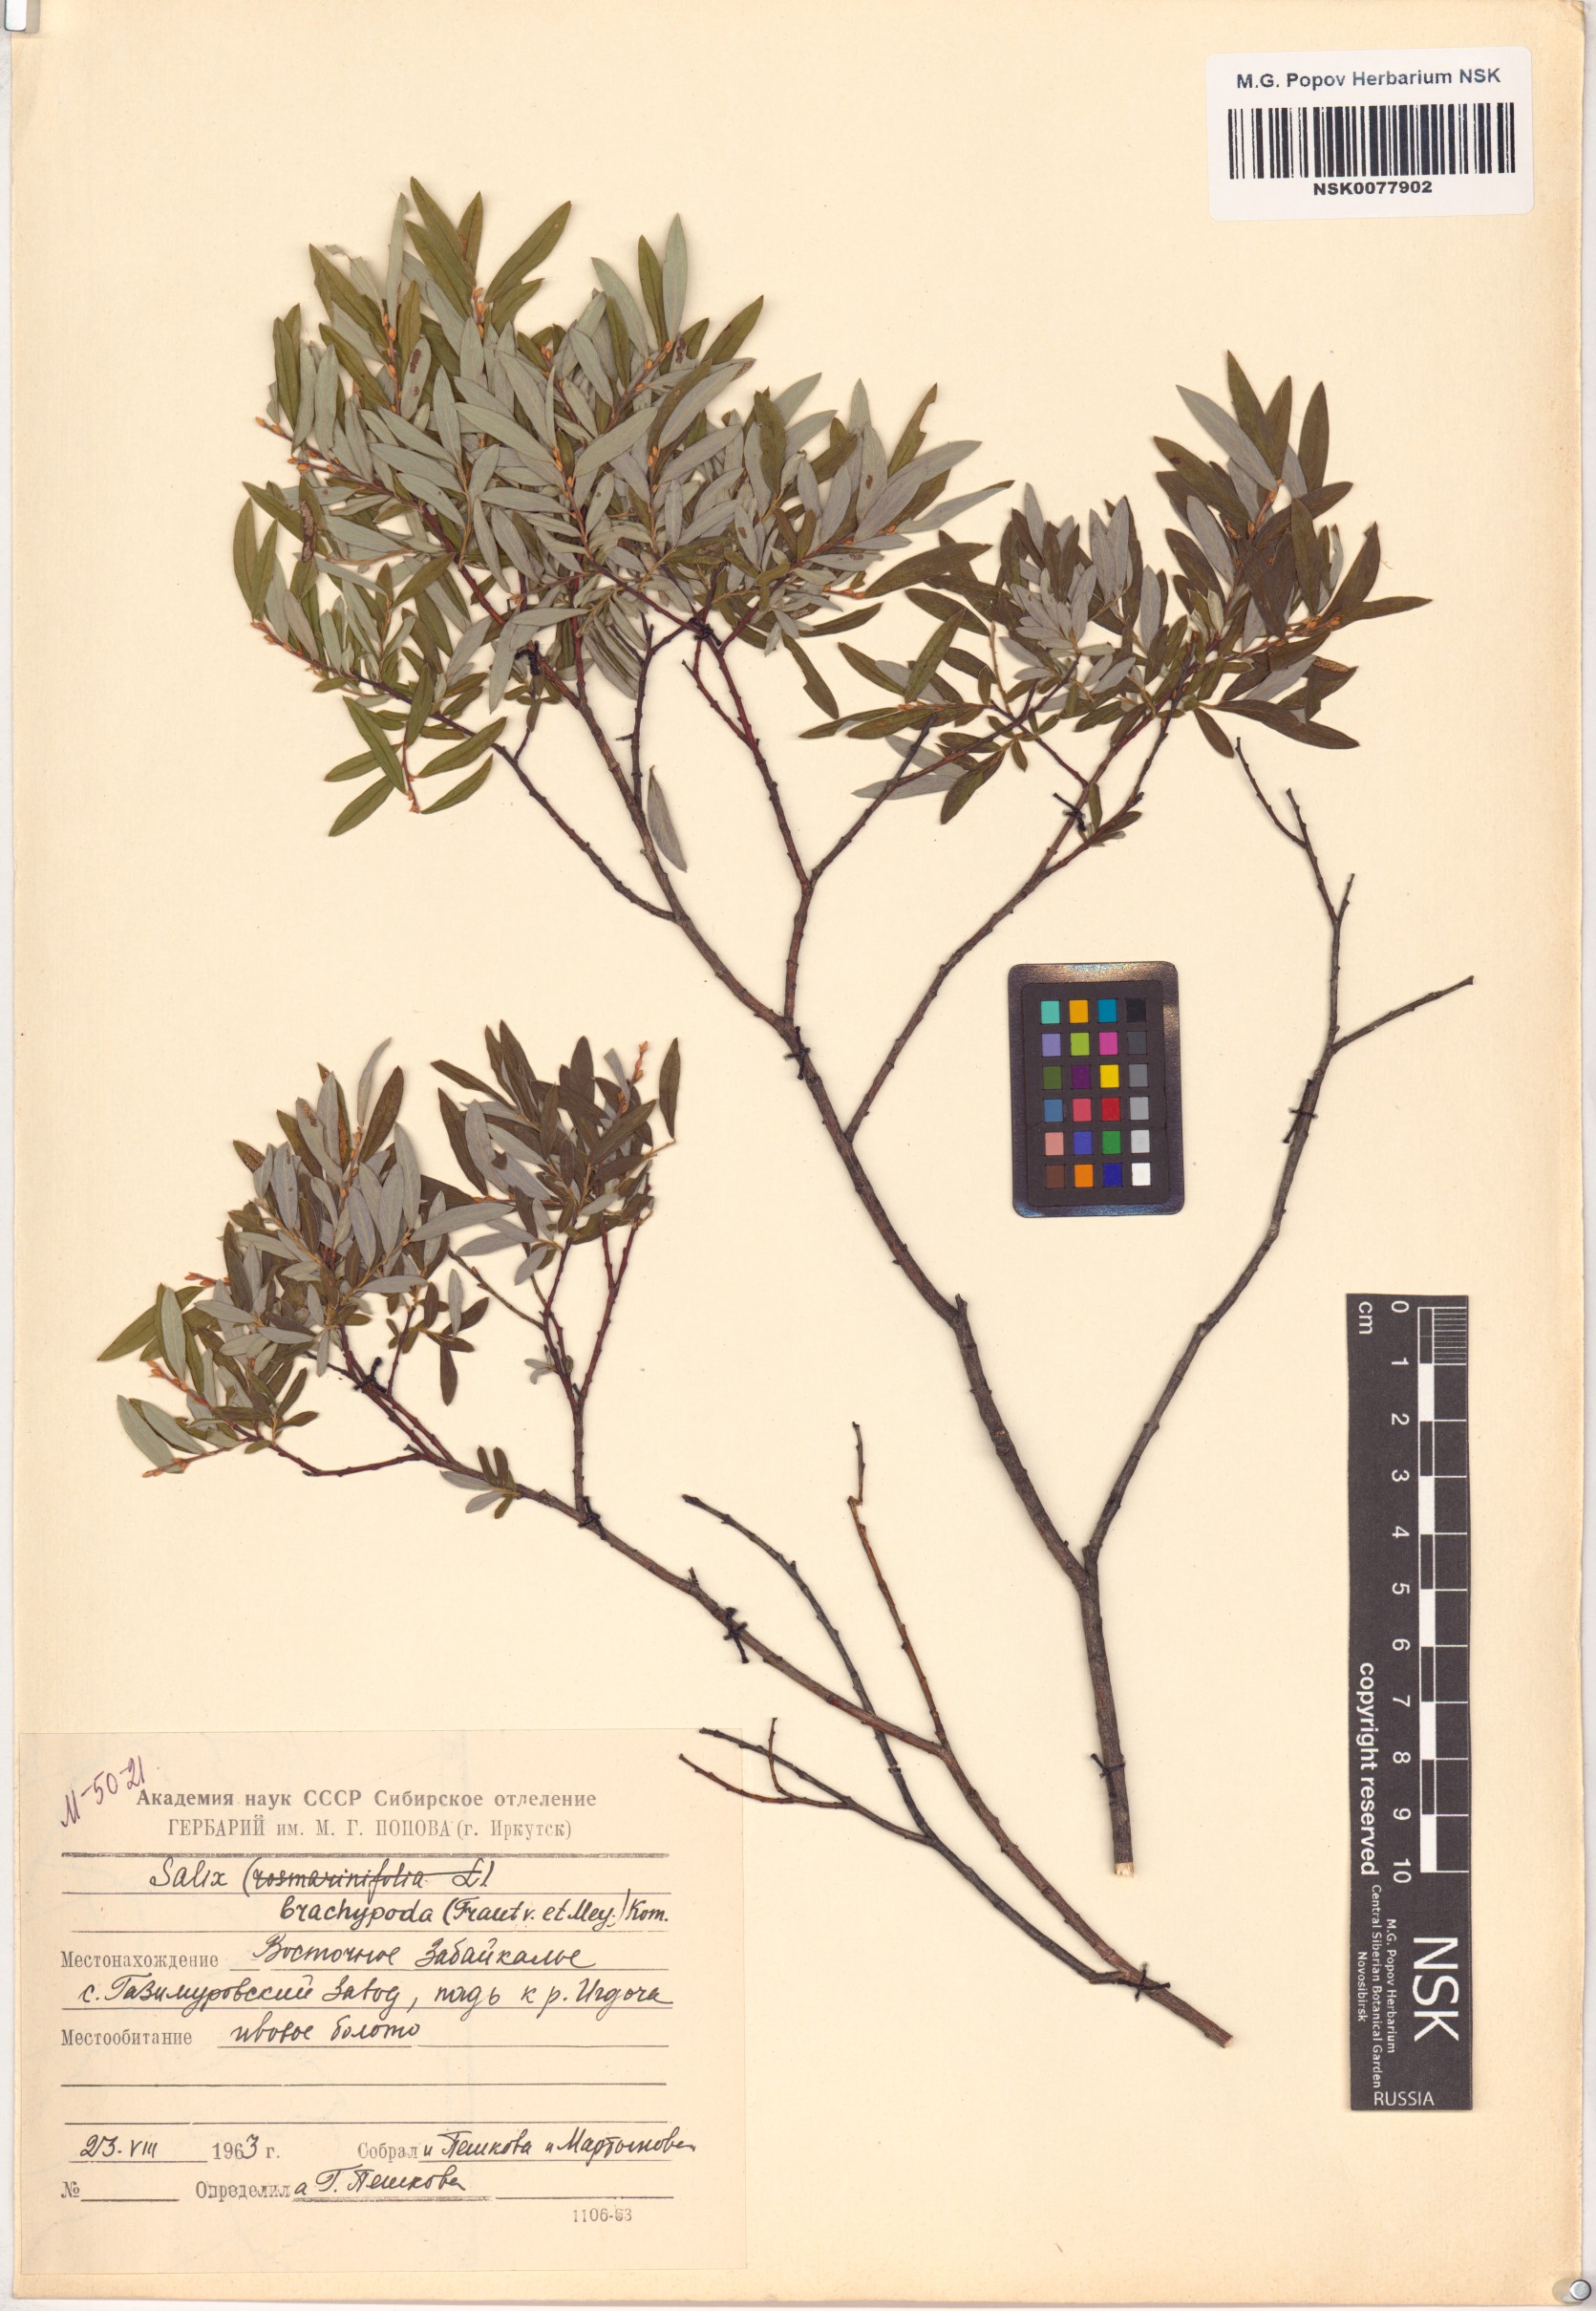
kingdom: Plantae
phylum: Tracheophyta
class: Magnoliopsida
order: Malpighiales
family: Salicaceae
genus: Salix
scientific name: Salix brachypoda
